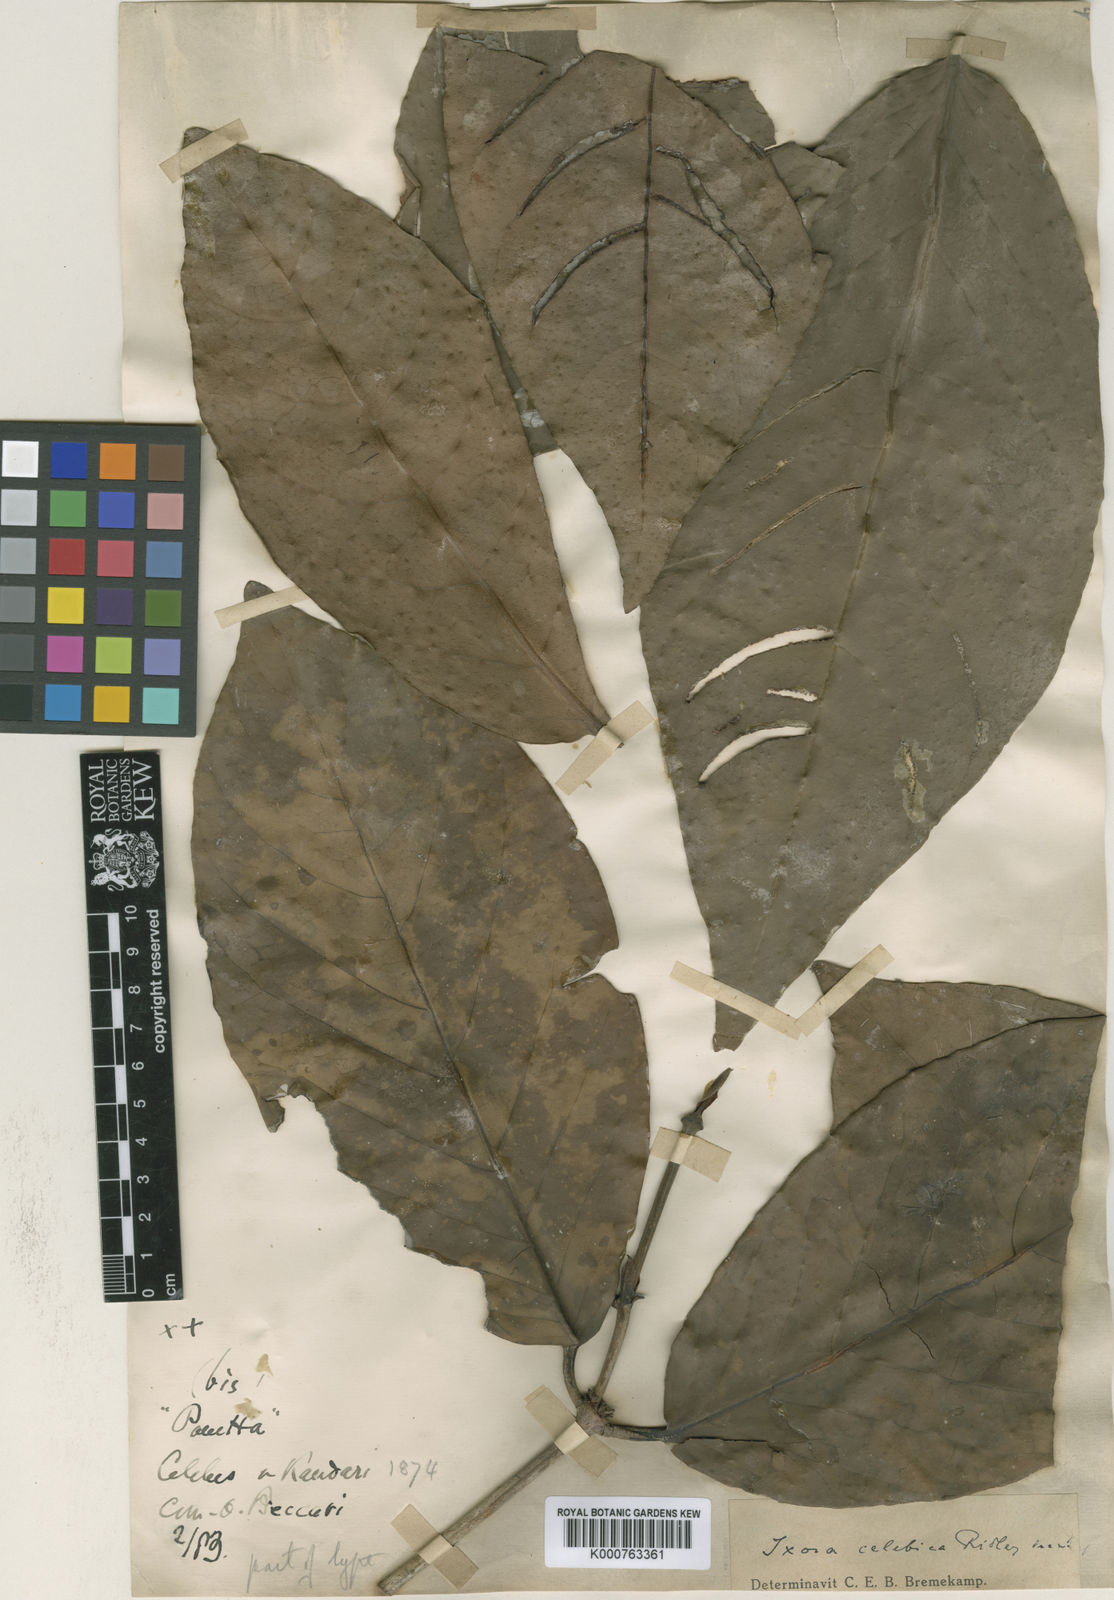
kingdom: Plantae
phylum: Tracheophyta
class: Magnoliopsida
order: Gentianales
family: Rubiaceae
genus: Ixora
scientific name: Ixora celebica
